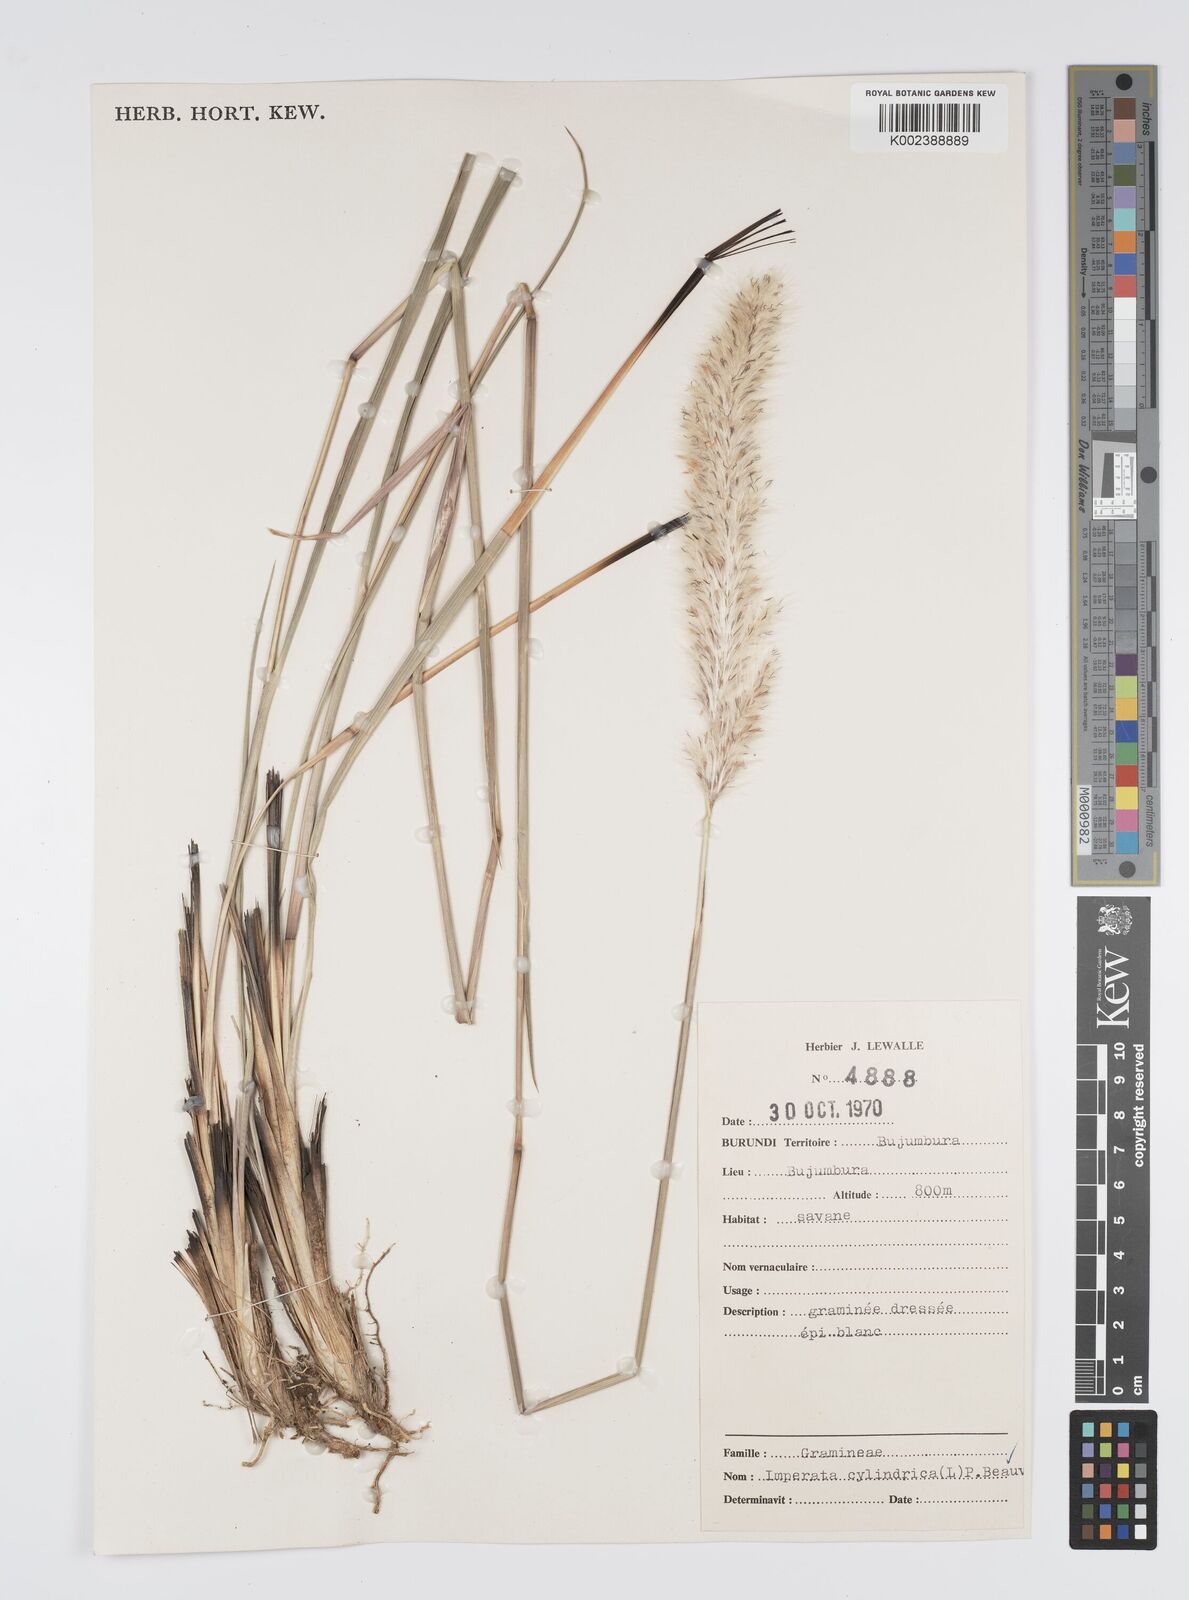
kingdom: Plantae
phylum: Tracheophyta
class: Liliopsida
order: Poales
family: Poaceae
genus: Imperata
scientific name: Imperata cylindrica
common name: Cogongrass
